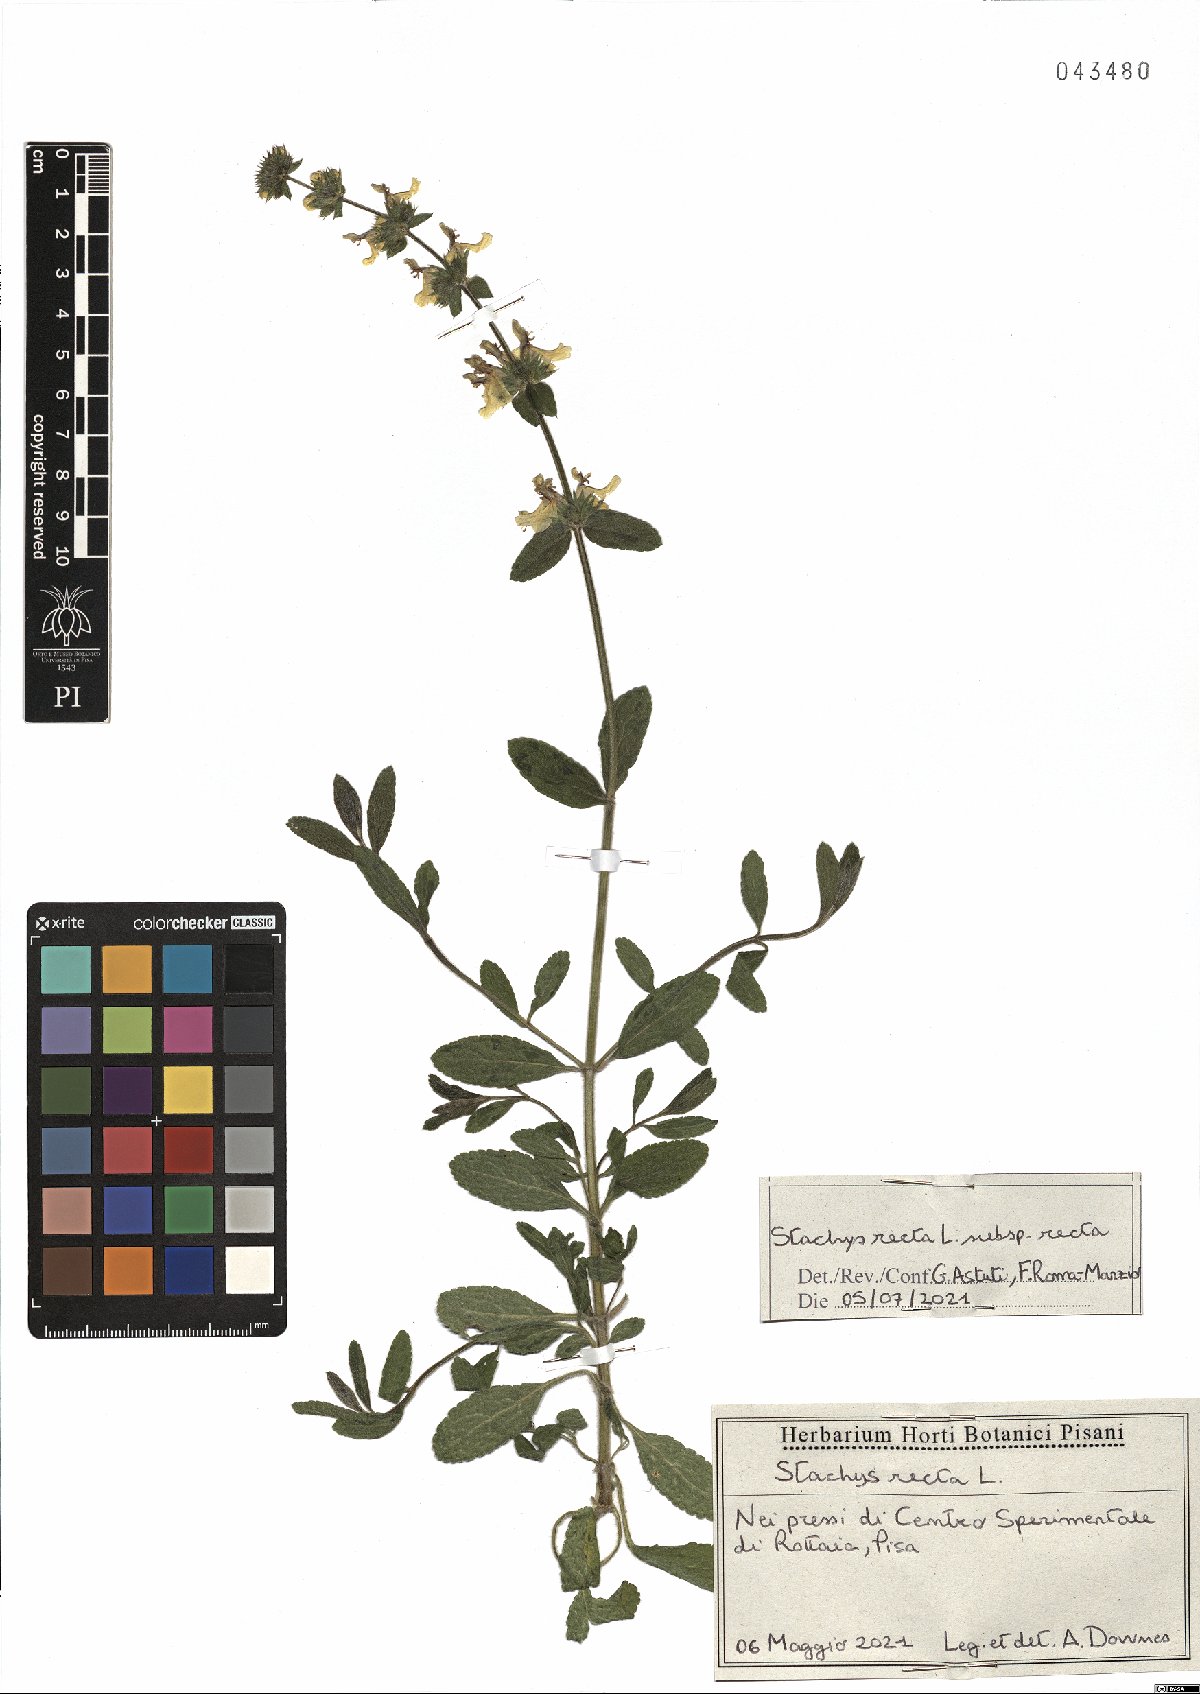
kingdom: Plantae
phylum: Tracheophyta
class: Magnoliopsida
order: Lamiales
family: Lamiaceae
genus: Stachys
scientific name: Stachys recta
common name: Perennial yellow-woundwort
